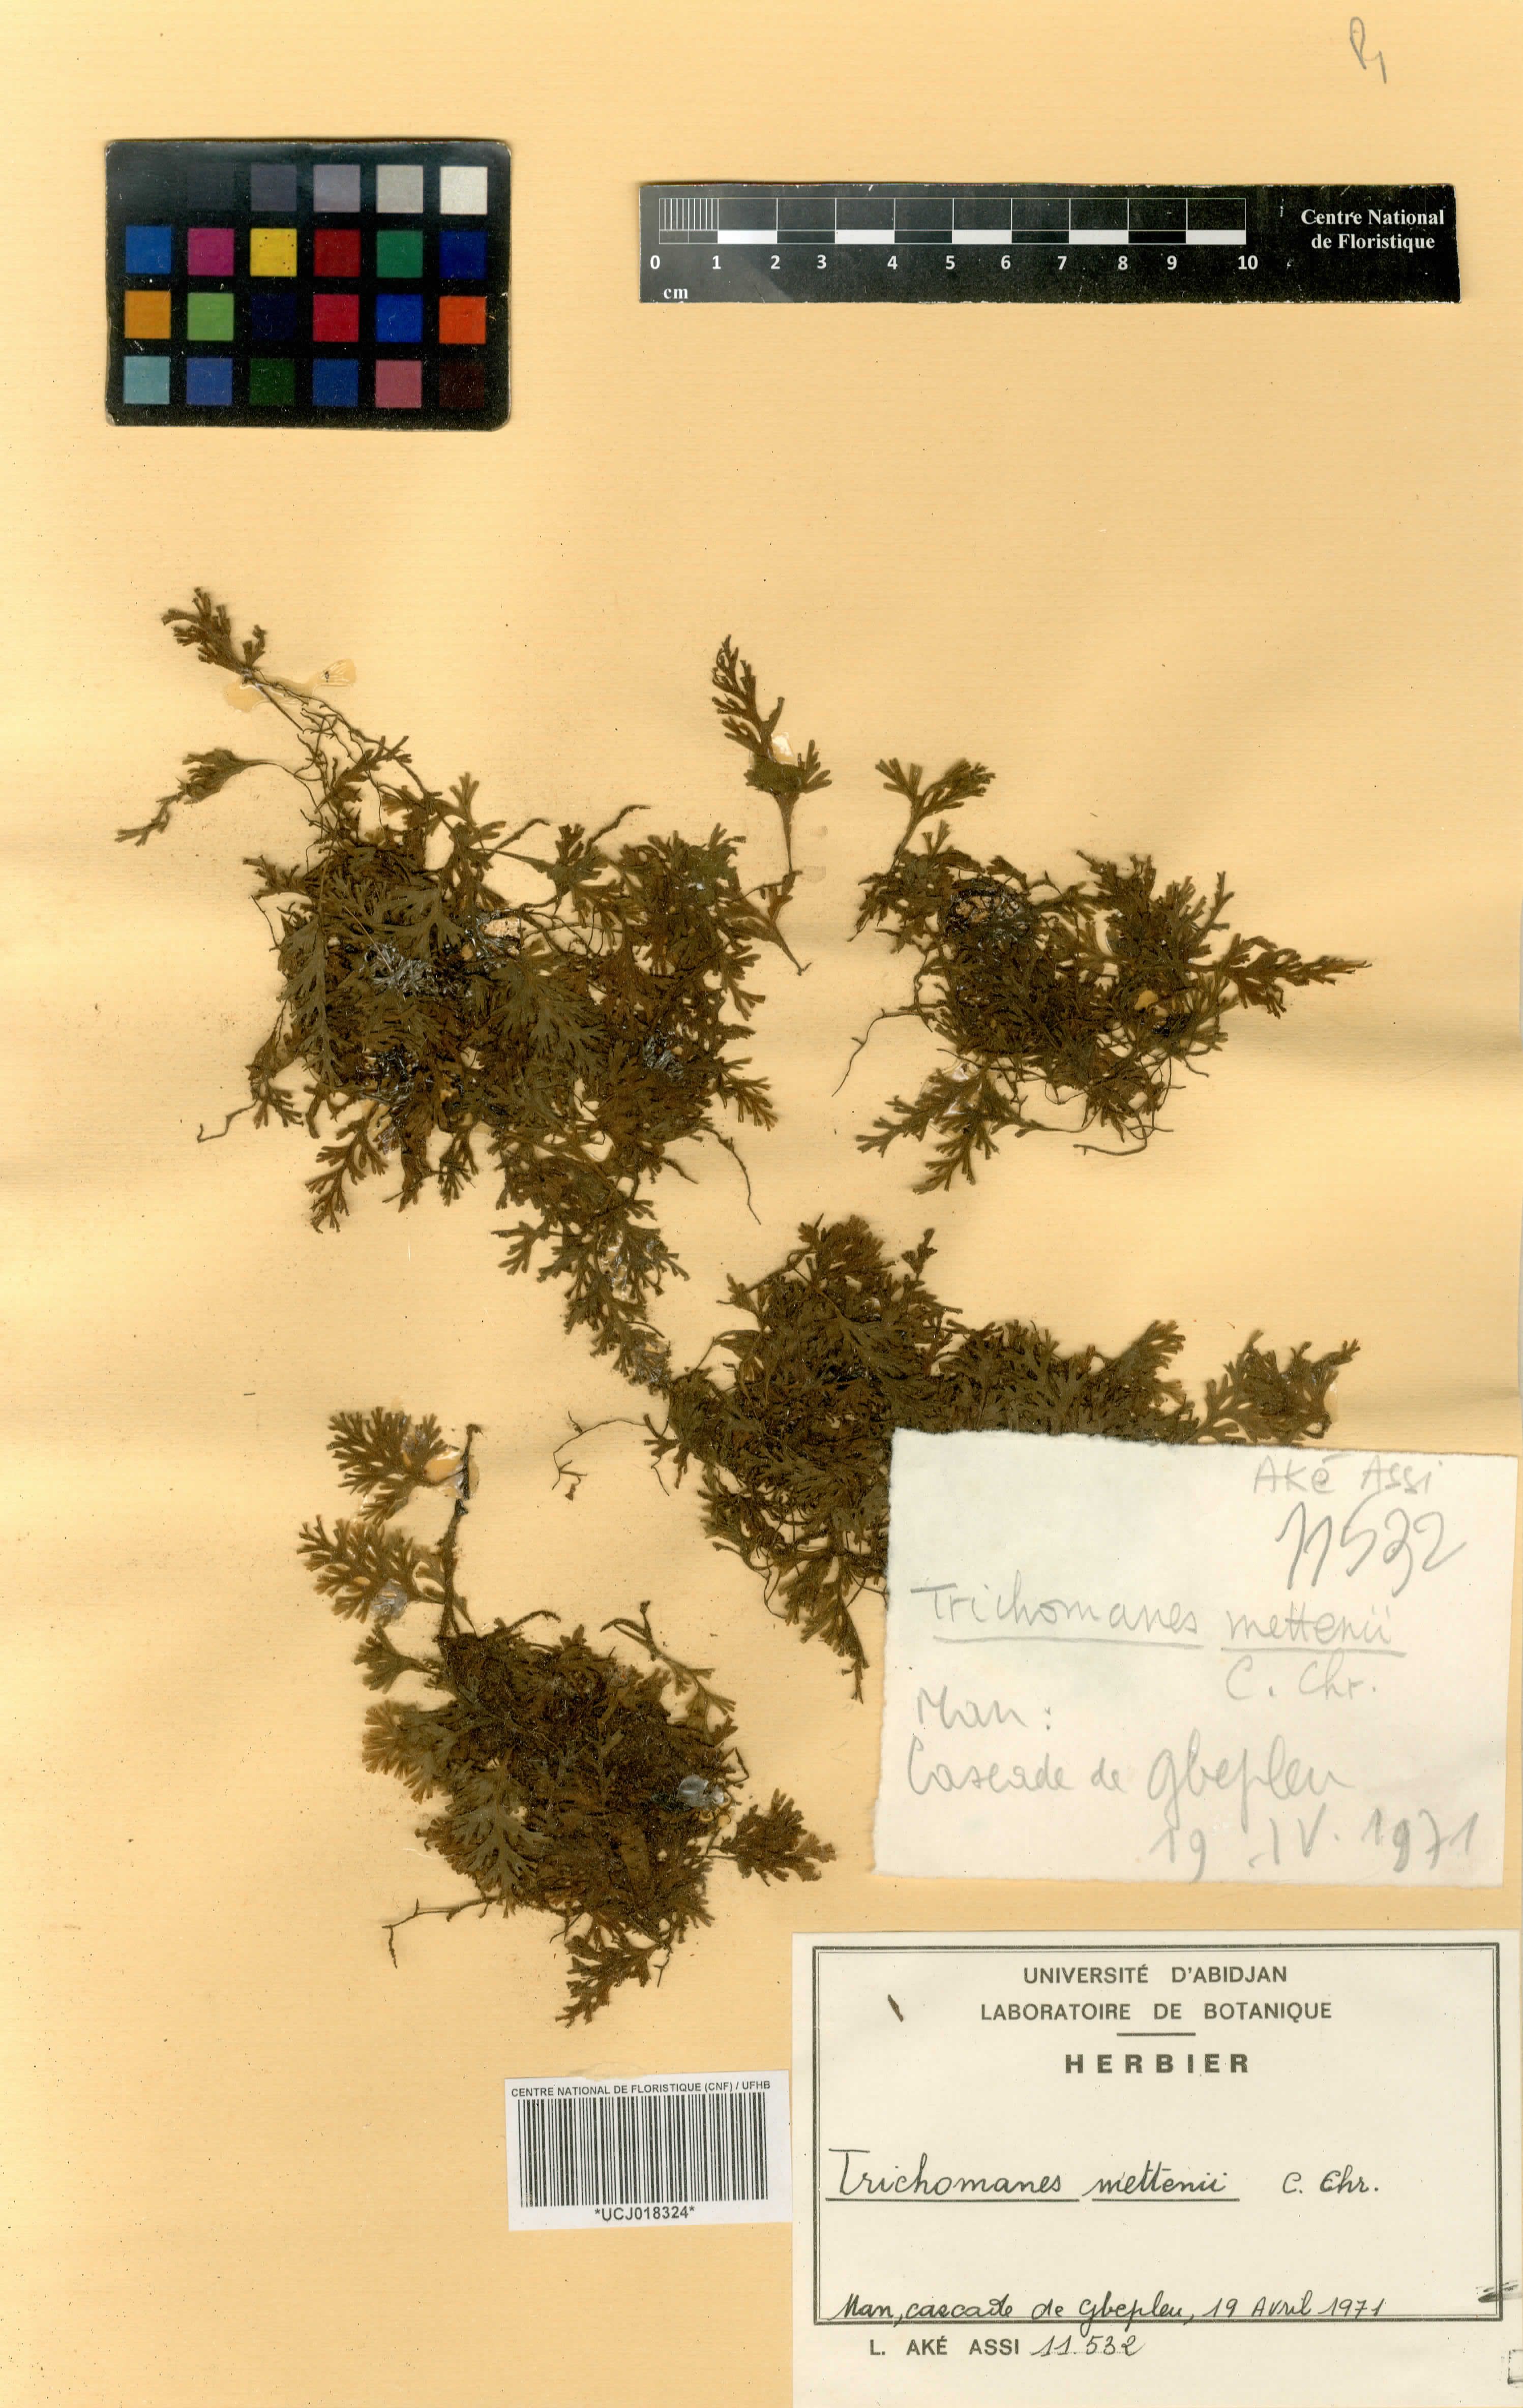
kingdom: Plantae
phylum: Tracheophyta
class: Polypodiopsida
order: Hymenophyllales
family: Hymenophyllaceae
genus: Crepidomanes
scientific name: Crepidomanes mettenii
